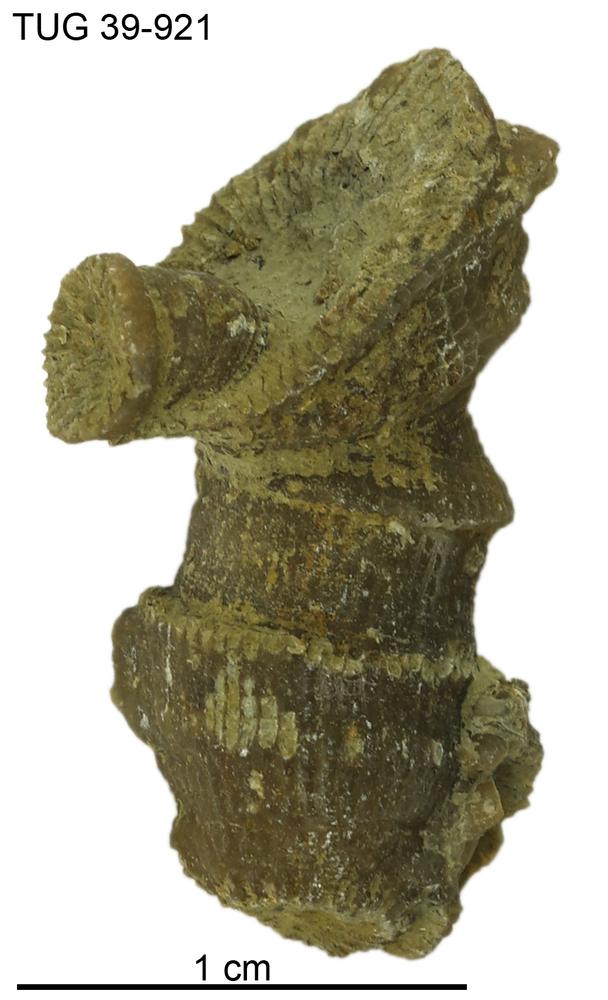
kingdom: Animalia
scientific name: Animalia
